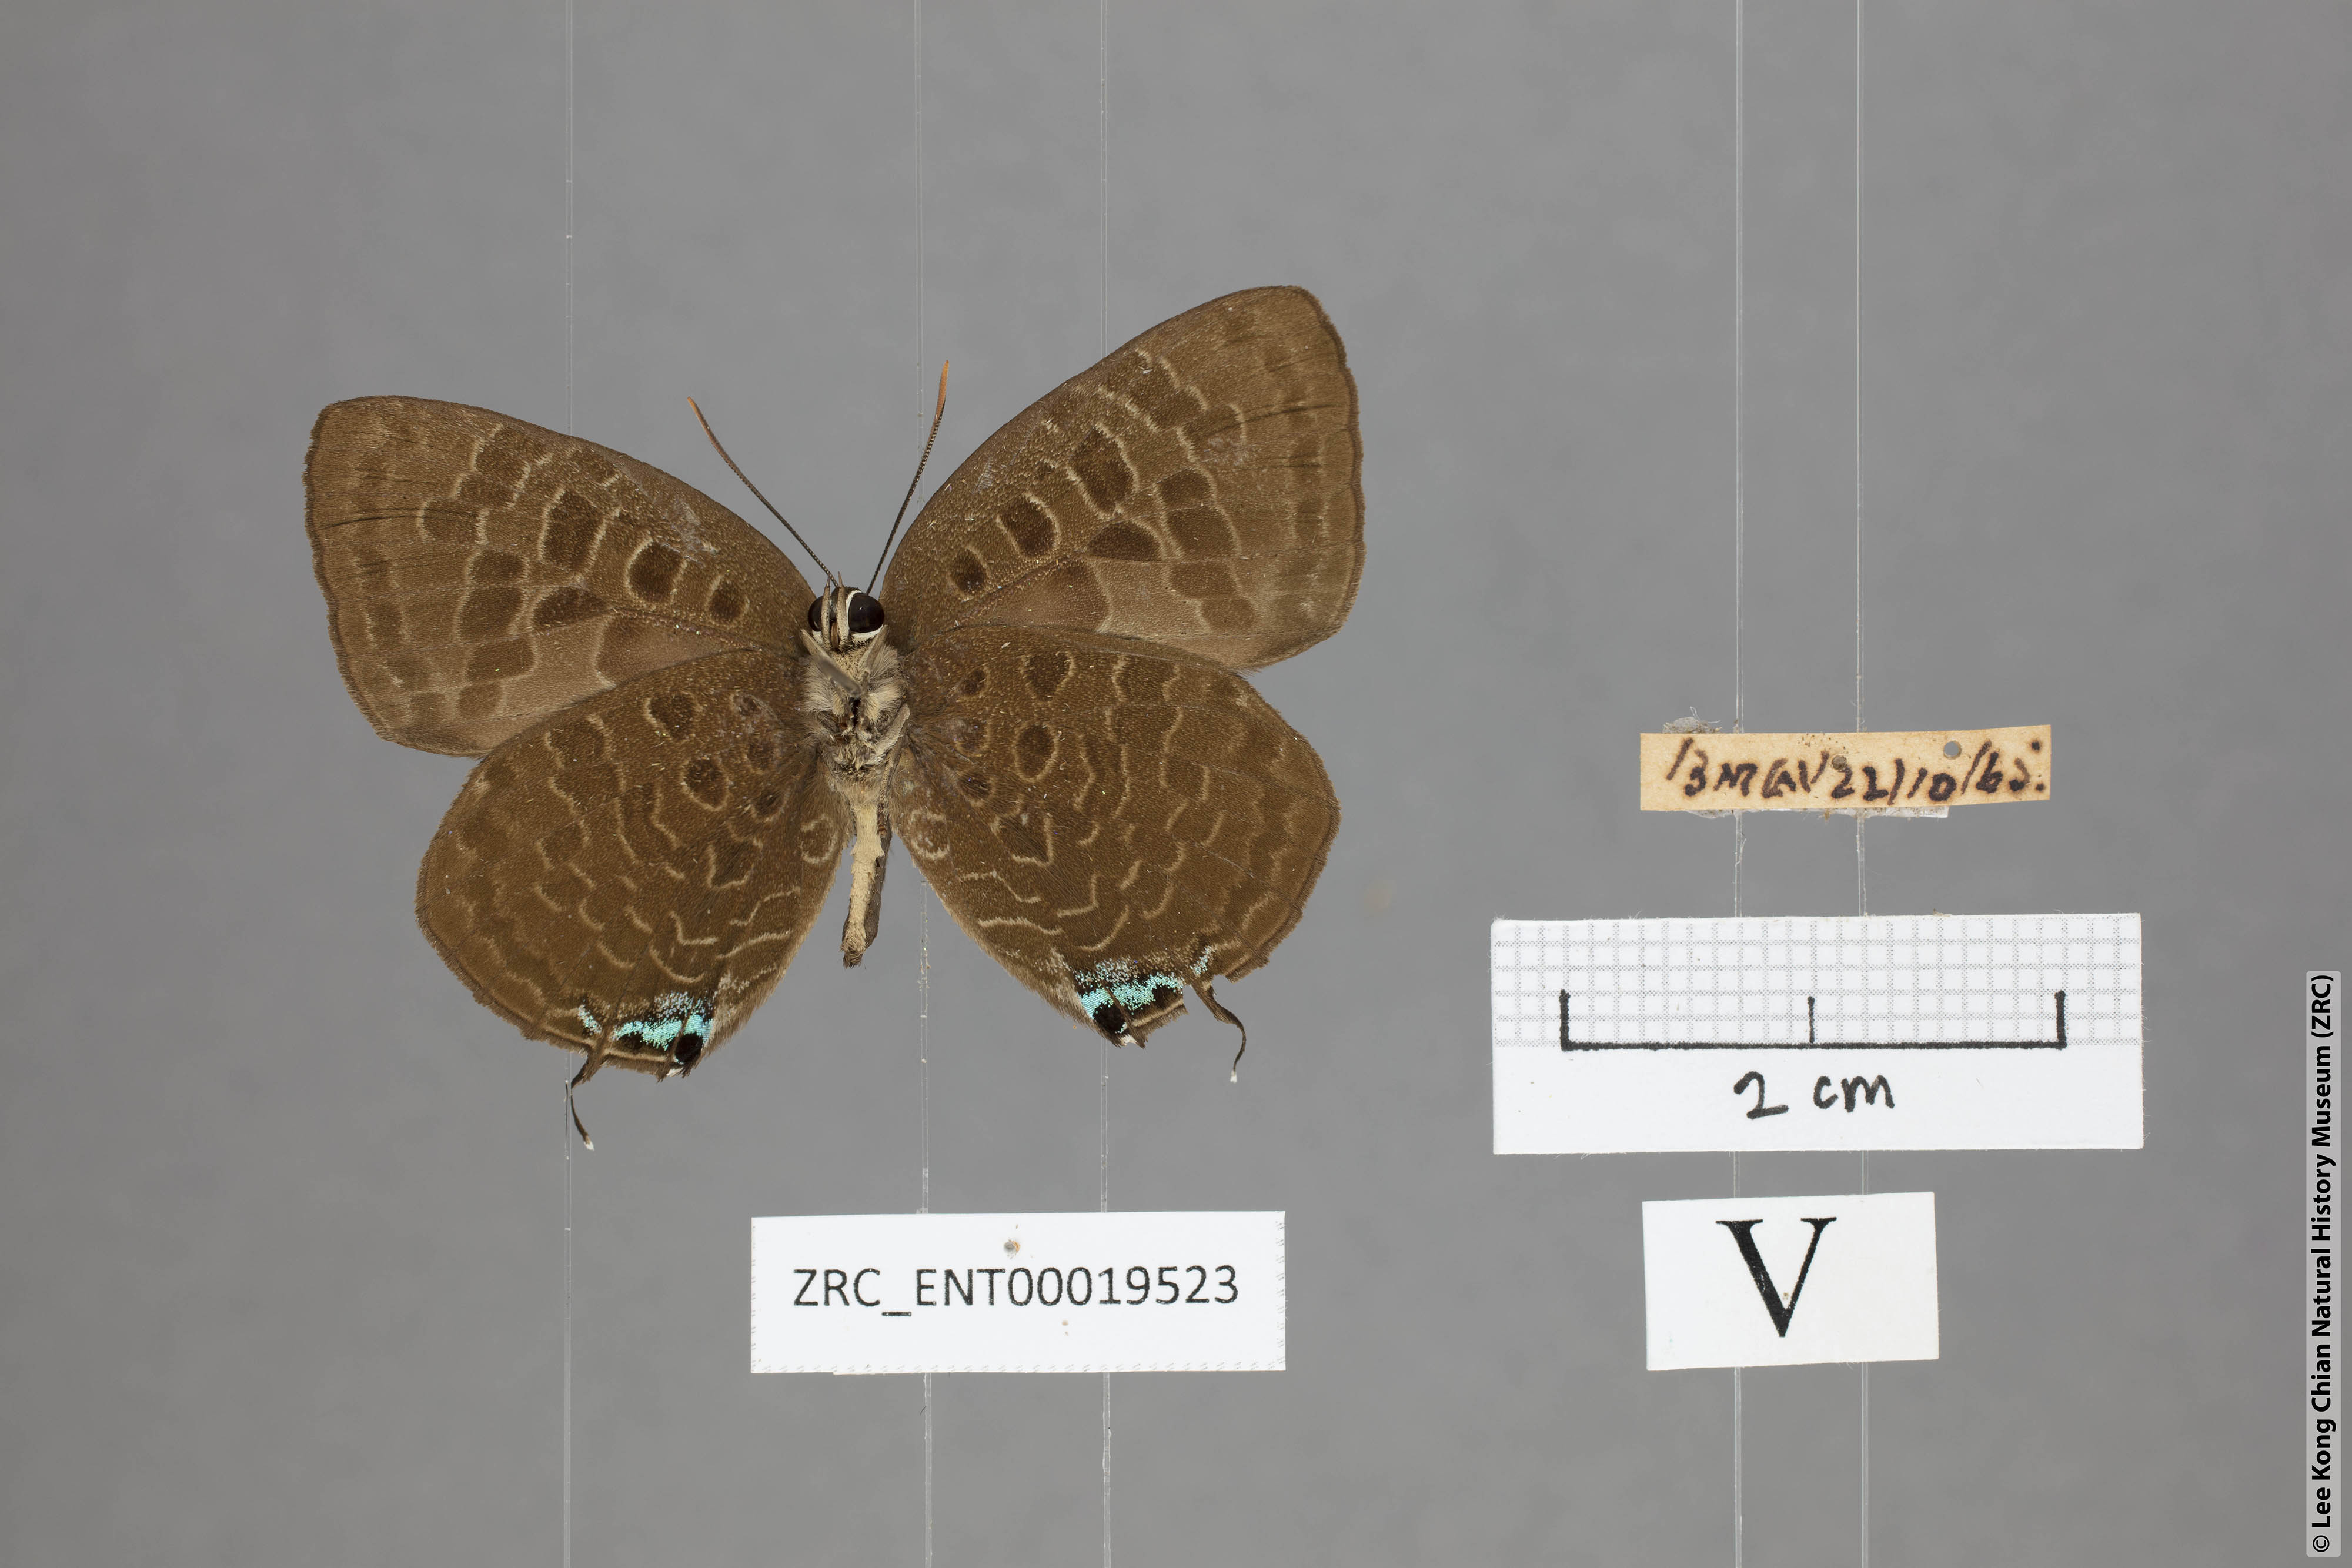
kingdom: Animalia
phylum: Arthropoda
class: Insecta
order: Lepidoptera
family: Lycaenidae
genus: Arhopala
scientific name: Arhopala horsfieldi
